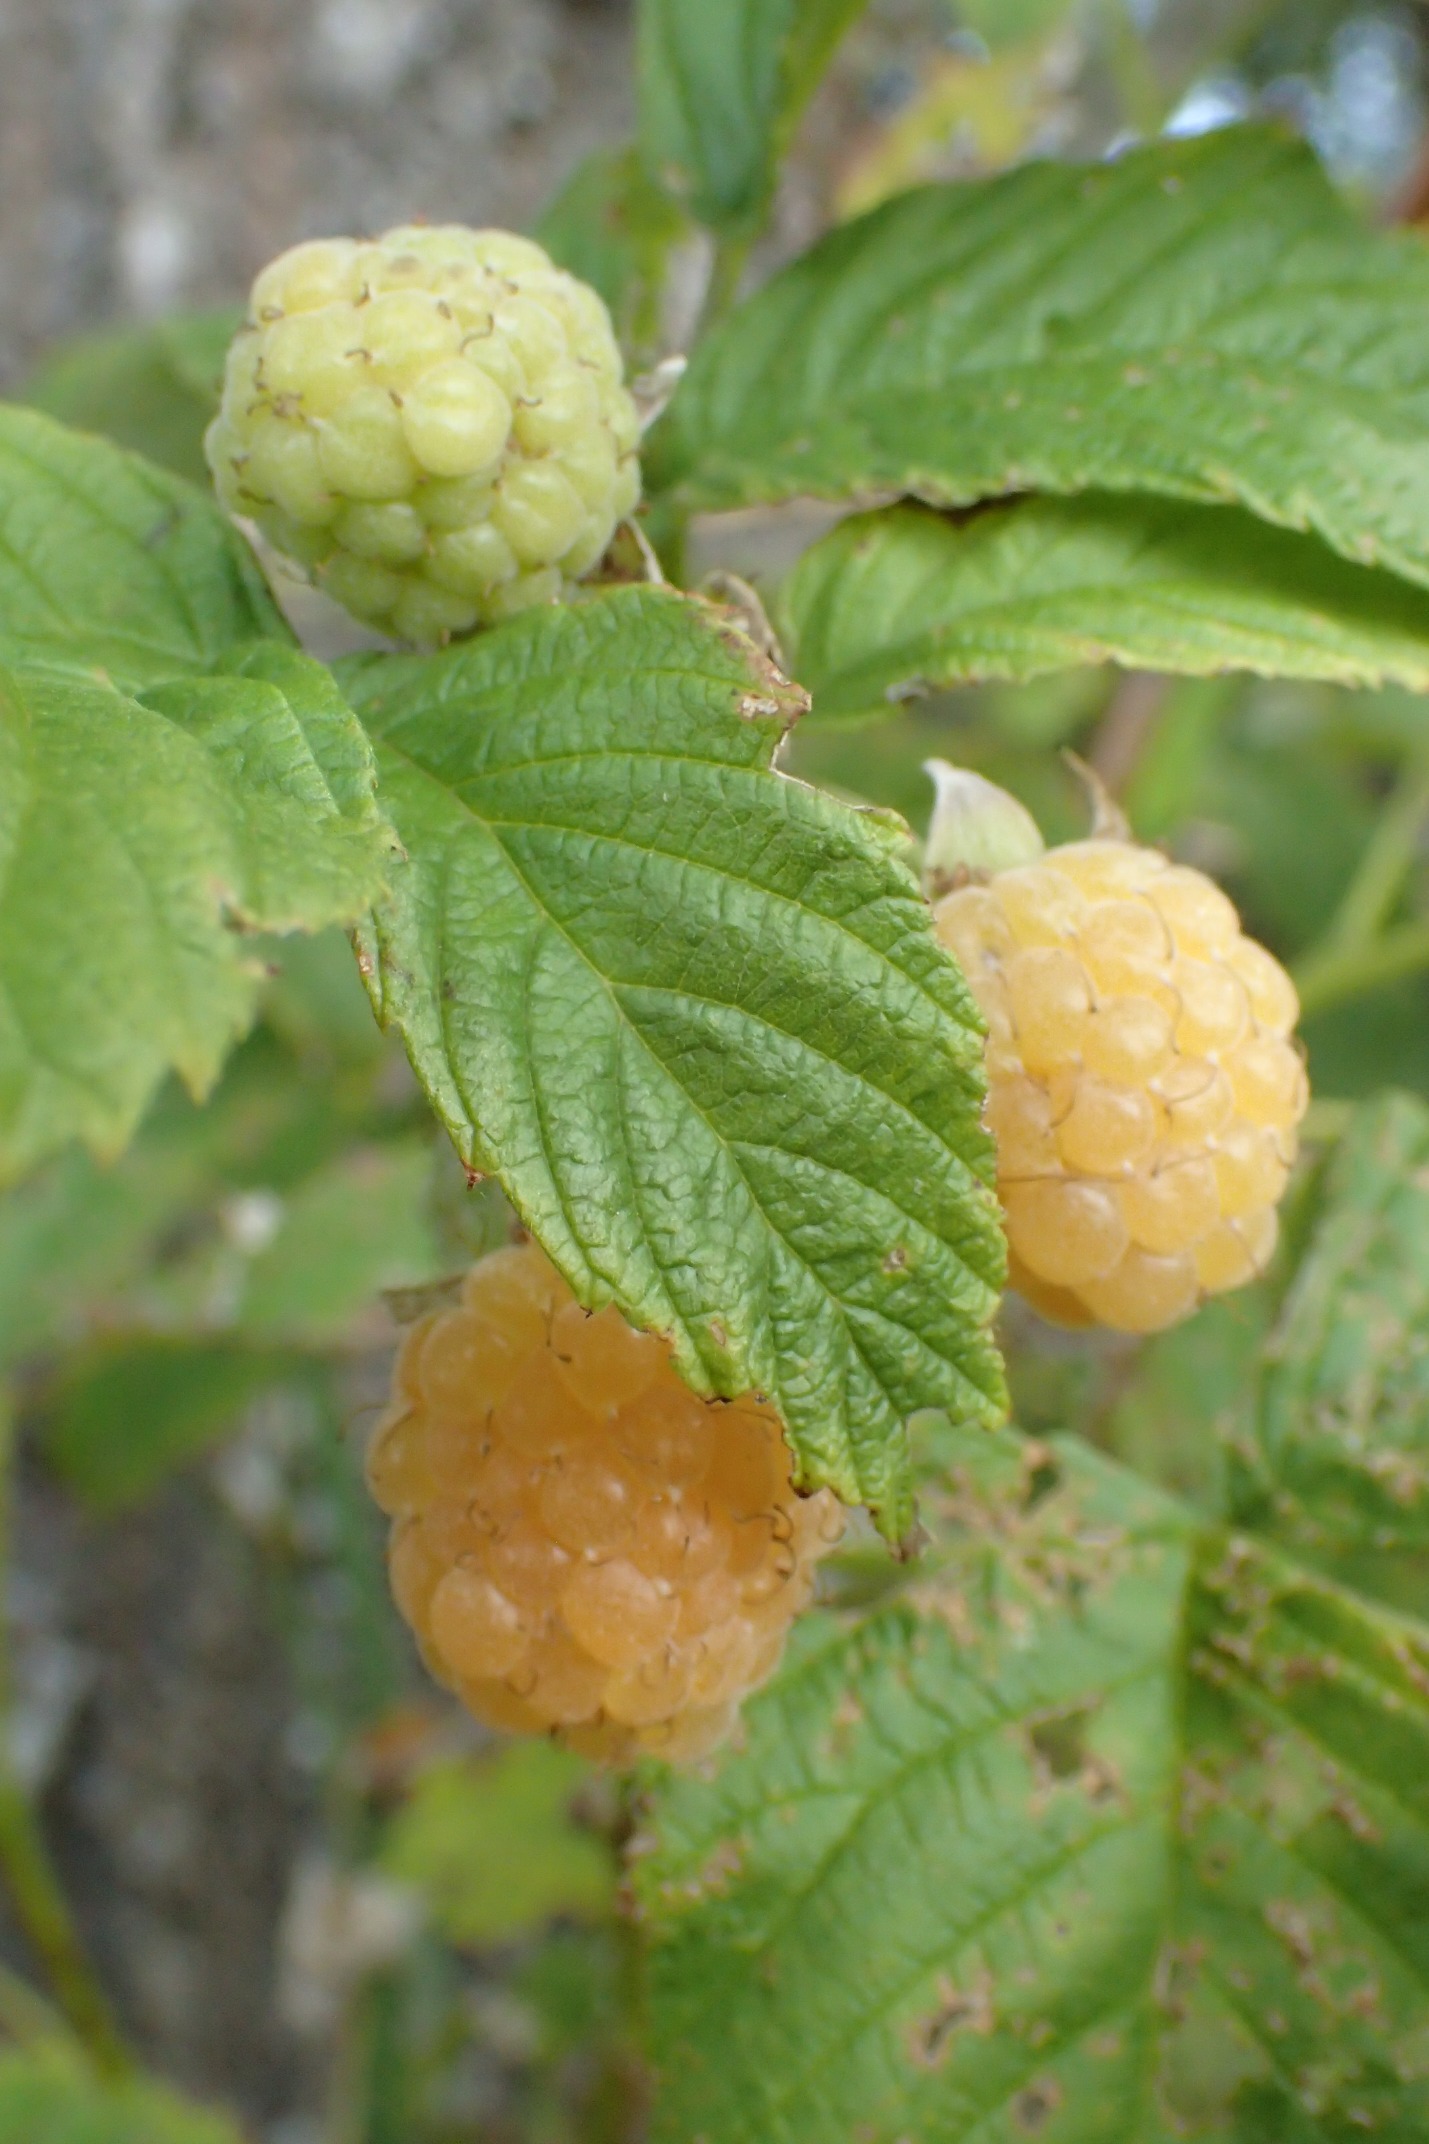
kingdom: Plantae
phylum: Tracheophyta
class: Magnoliopsida
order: Rosales
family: Rosaceae
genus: Rubus
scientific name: Rubus idaeus
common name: Hindbær
